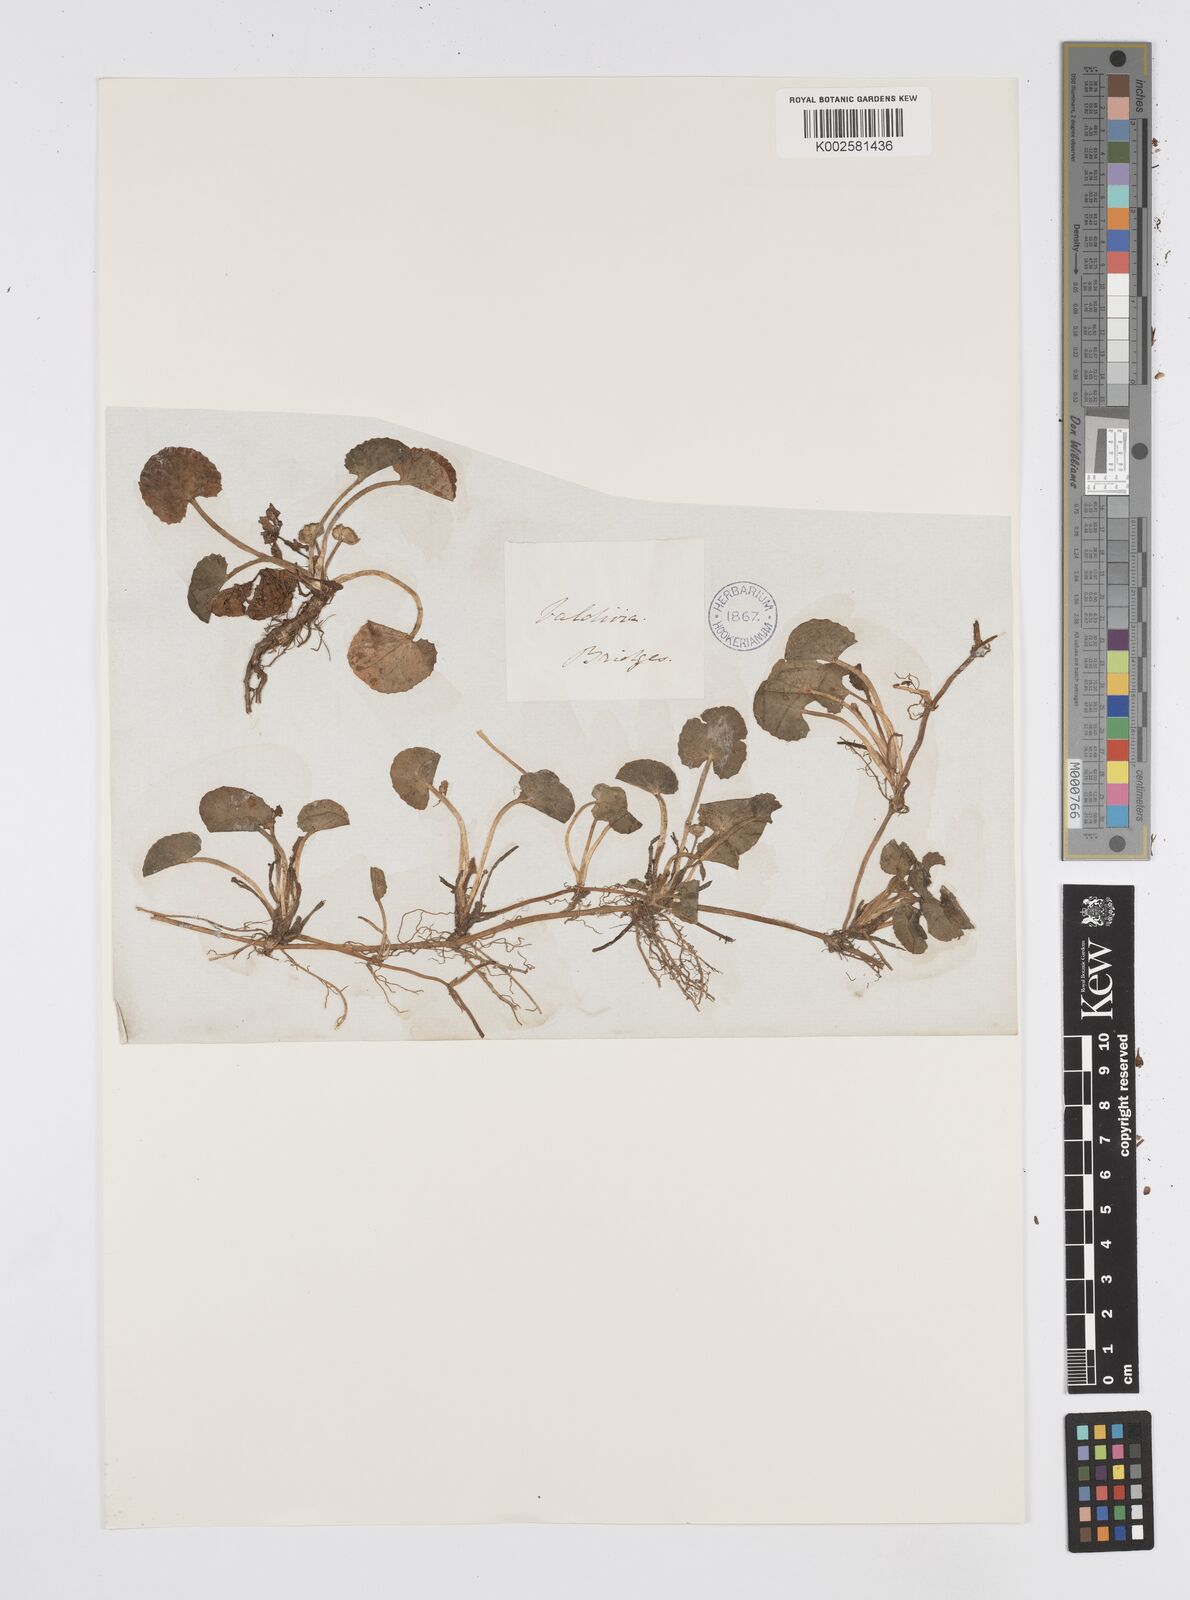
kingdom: Plantae
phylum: Tracheophyta
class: Magnoliopsida
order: Apiales
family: Apiaceae
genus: Centella
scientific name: Centella erecta
